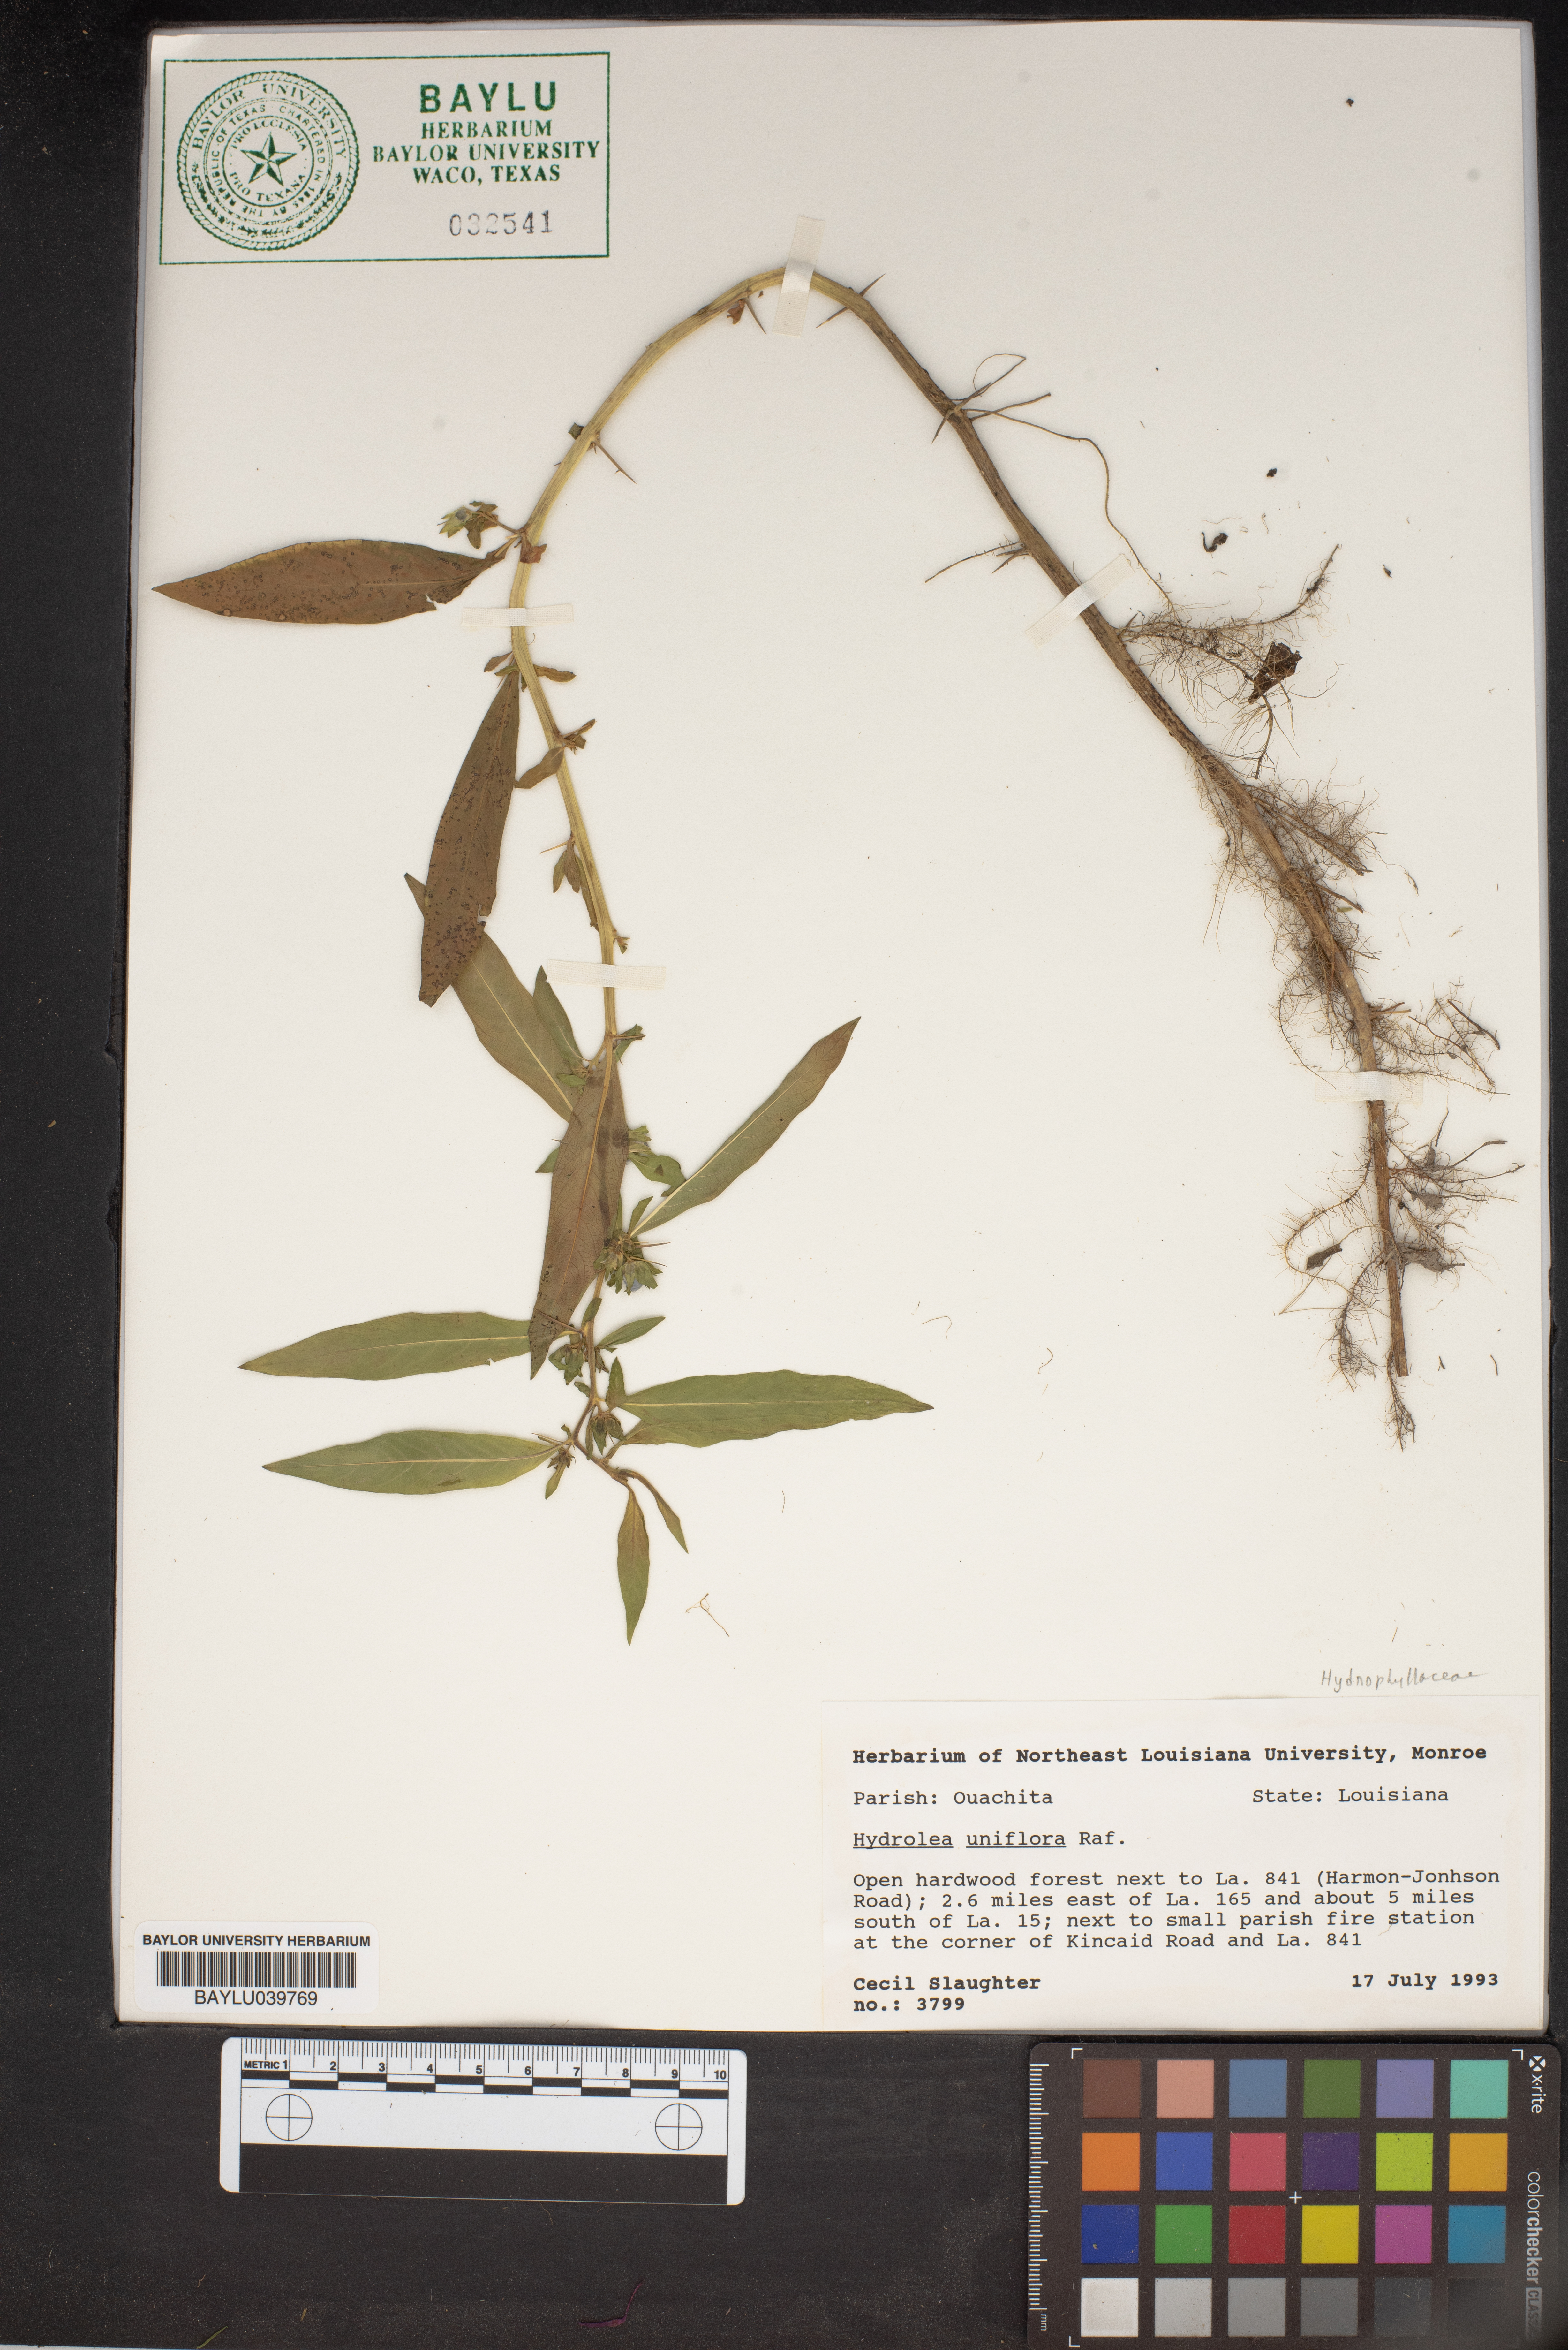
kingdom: Plantae
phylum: Tracheophyta
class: Magnoliopsida
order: Solanales
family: Hydroleaceae
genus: Hydrolea
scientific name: Hydrolea uniflora
